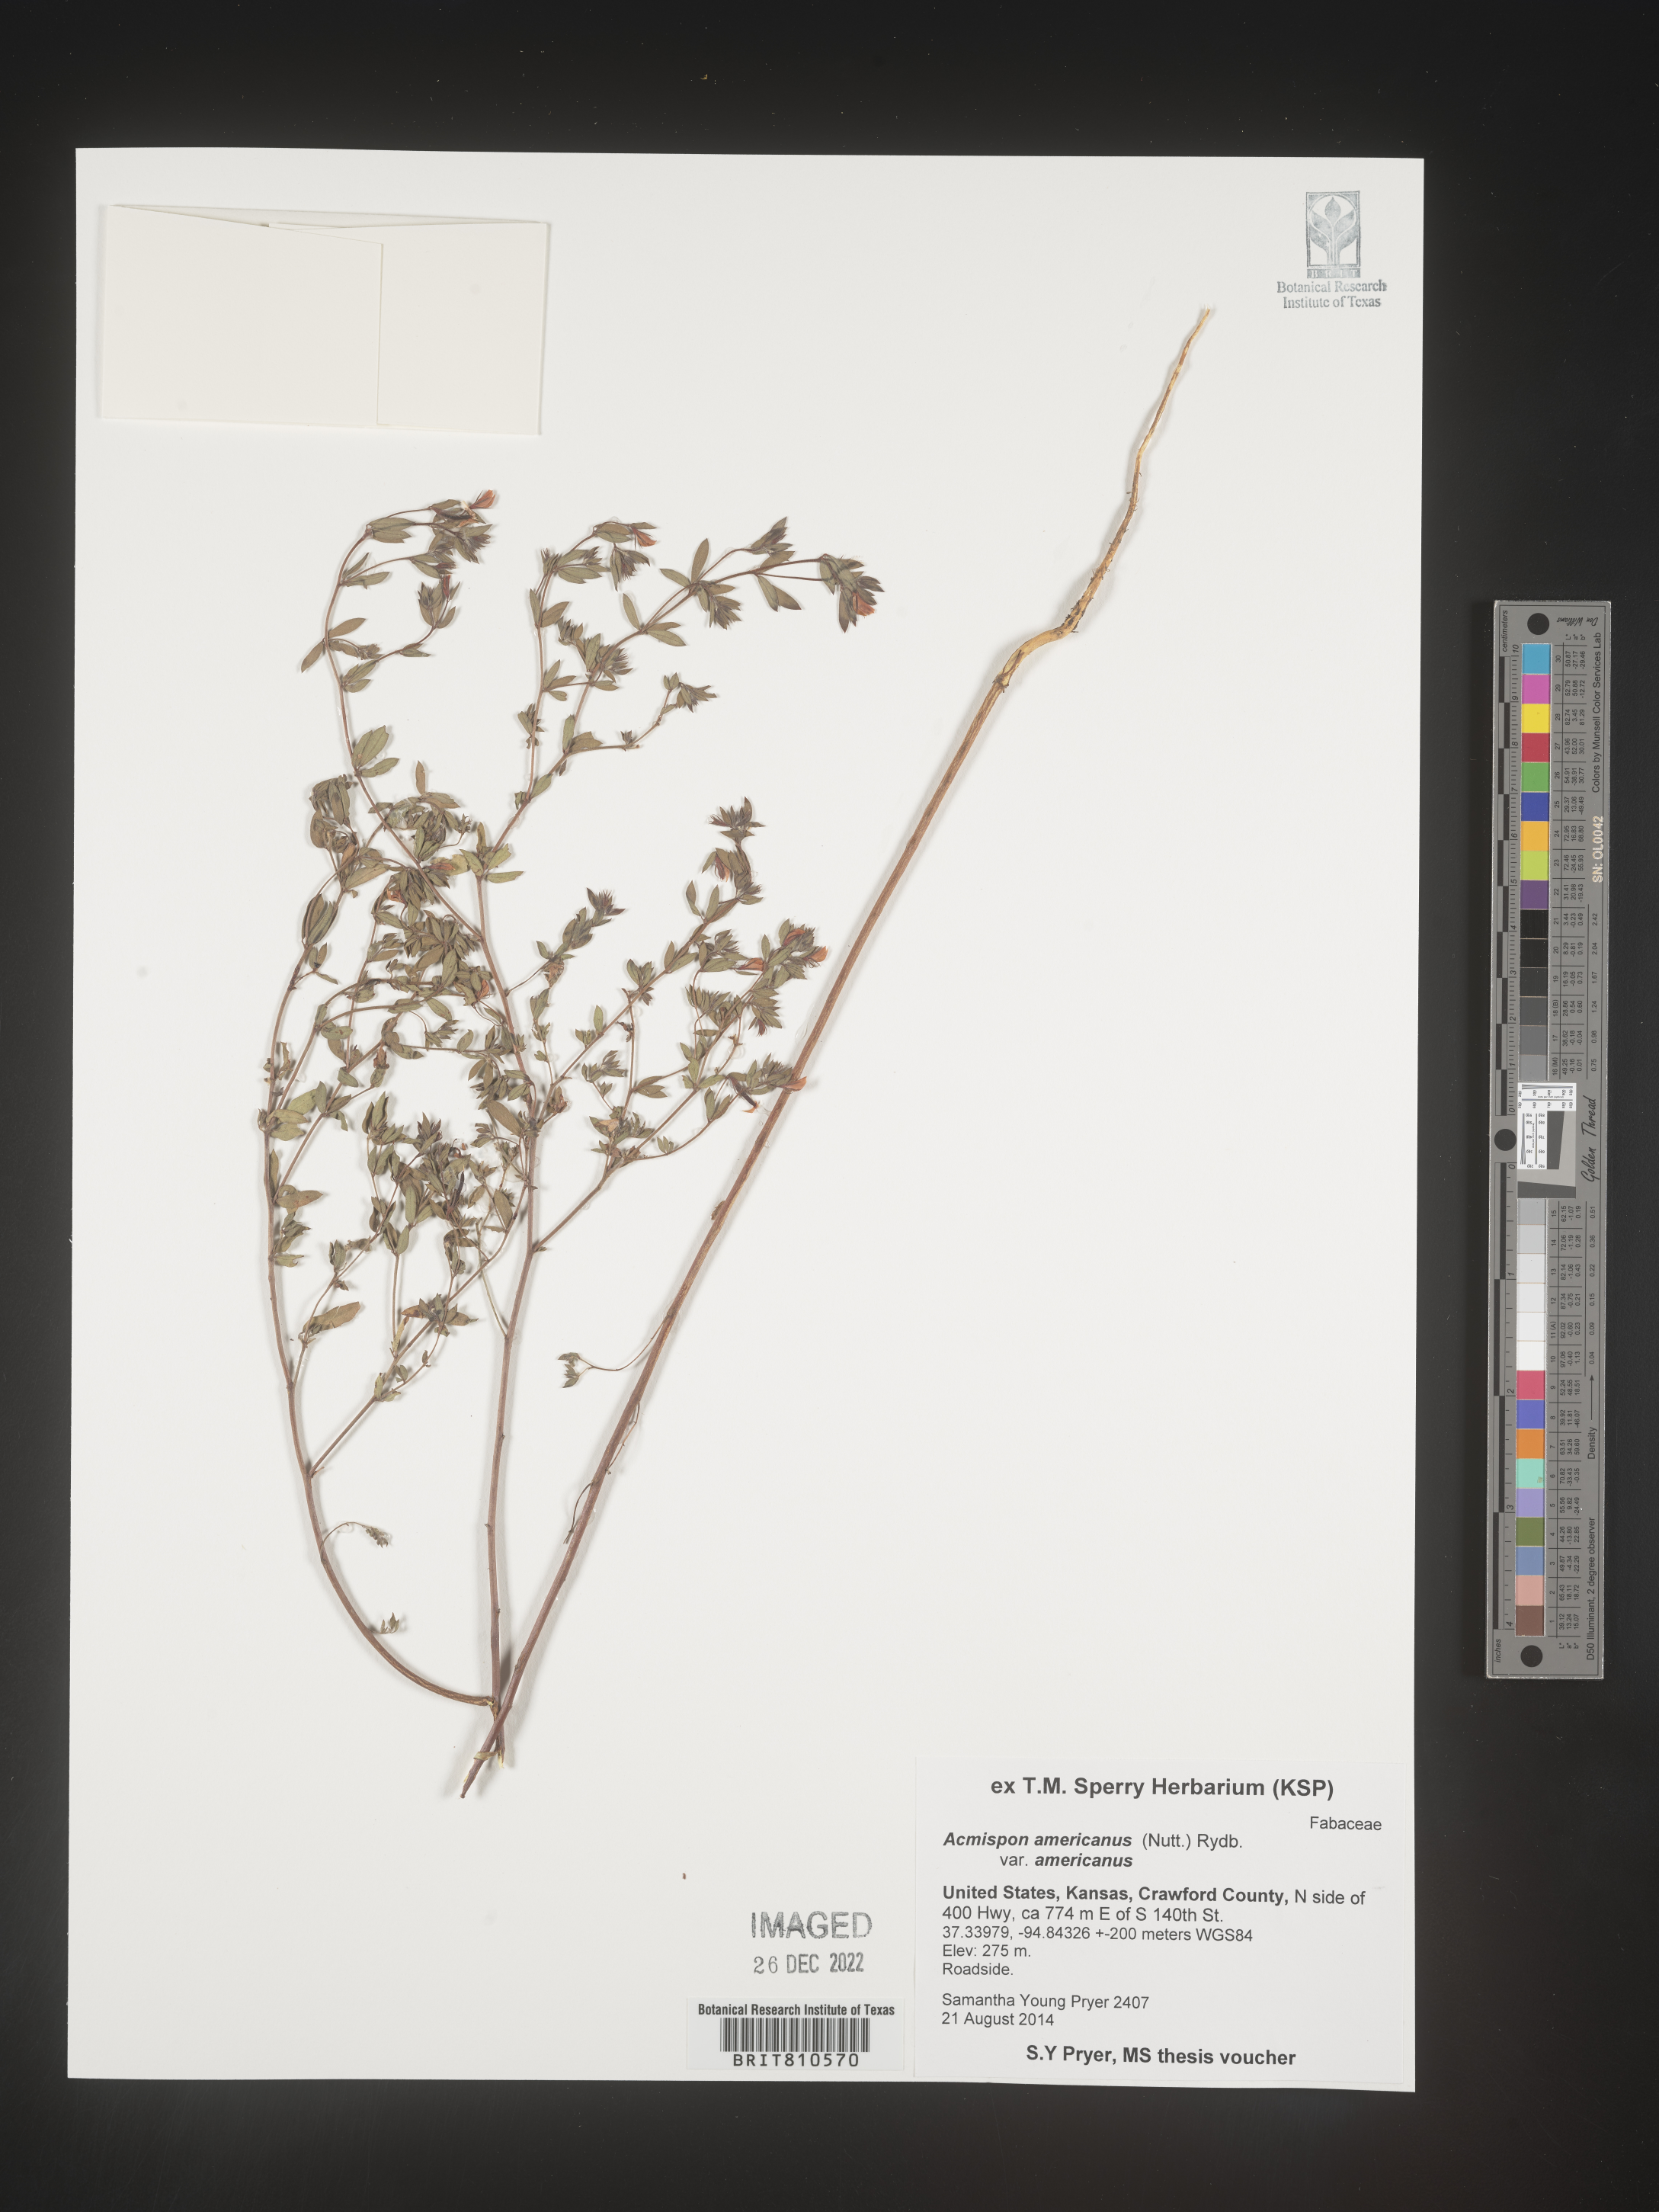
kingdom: Plantae
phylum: Tracheophyta
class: Magnoliopsida
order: Fabales
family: Fabaceae
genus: Acmispon
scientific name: Acmispon
